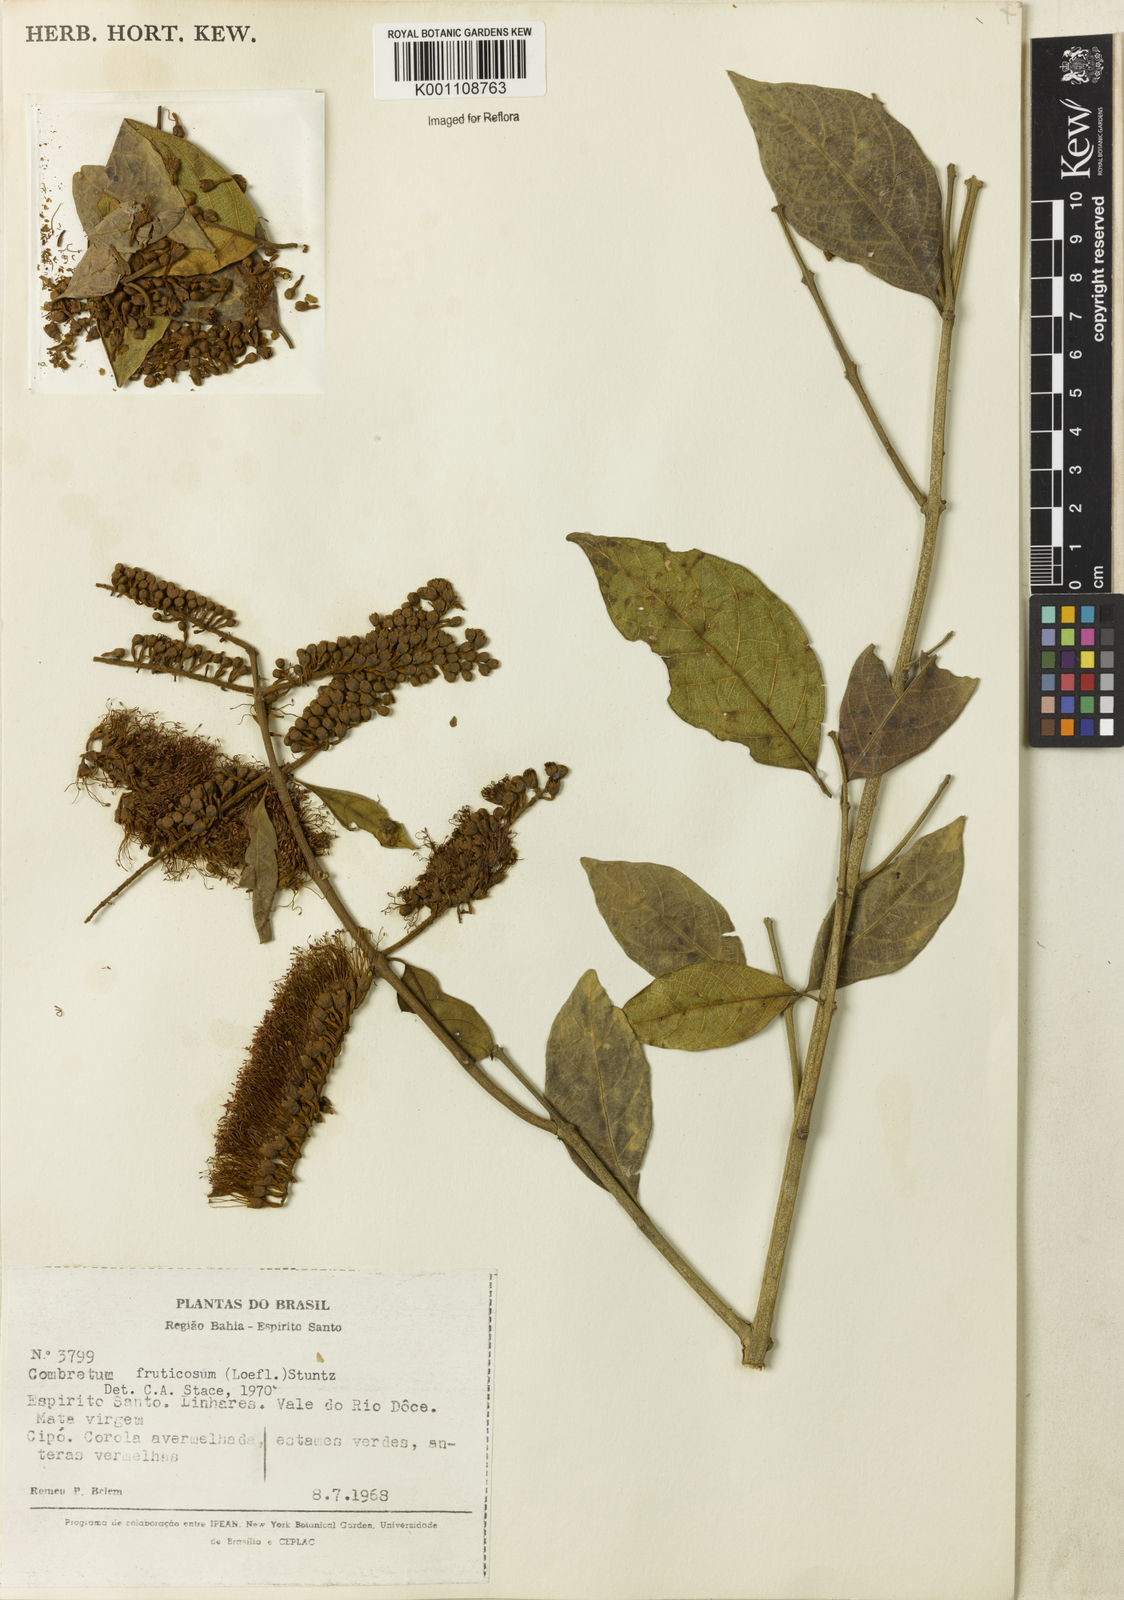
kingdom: Plantae
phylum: Tracheophyta
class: Magnoliopsida
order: Myrtales
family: Combretaceae
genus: Combretum
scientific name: Combretum fruticosum
